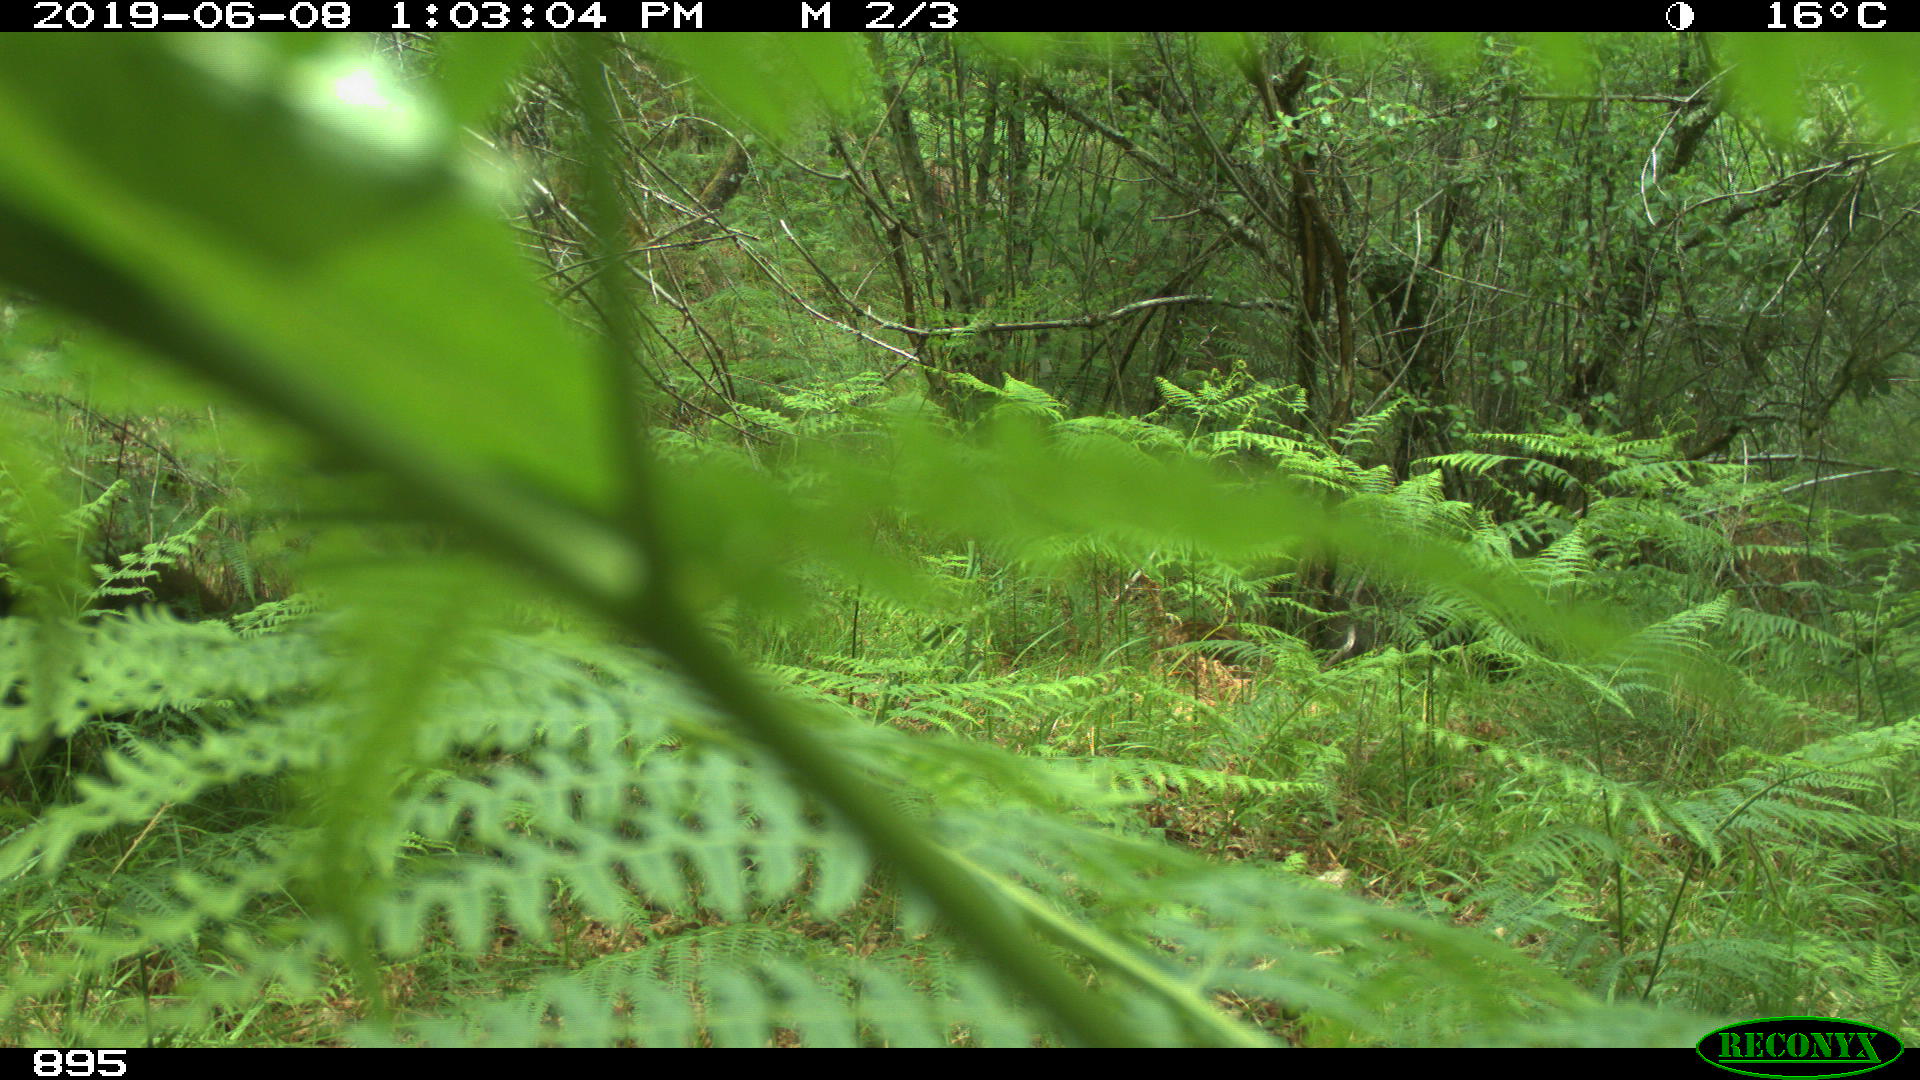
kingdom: Animalia
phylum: Chordata
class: Mammalia
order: Artiodactyla
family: Suidae
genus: Sus
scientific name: Sus scrofa
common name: Wild boar
